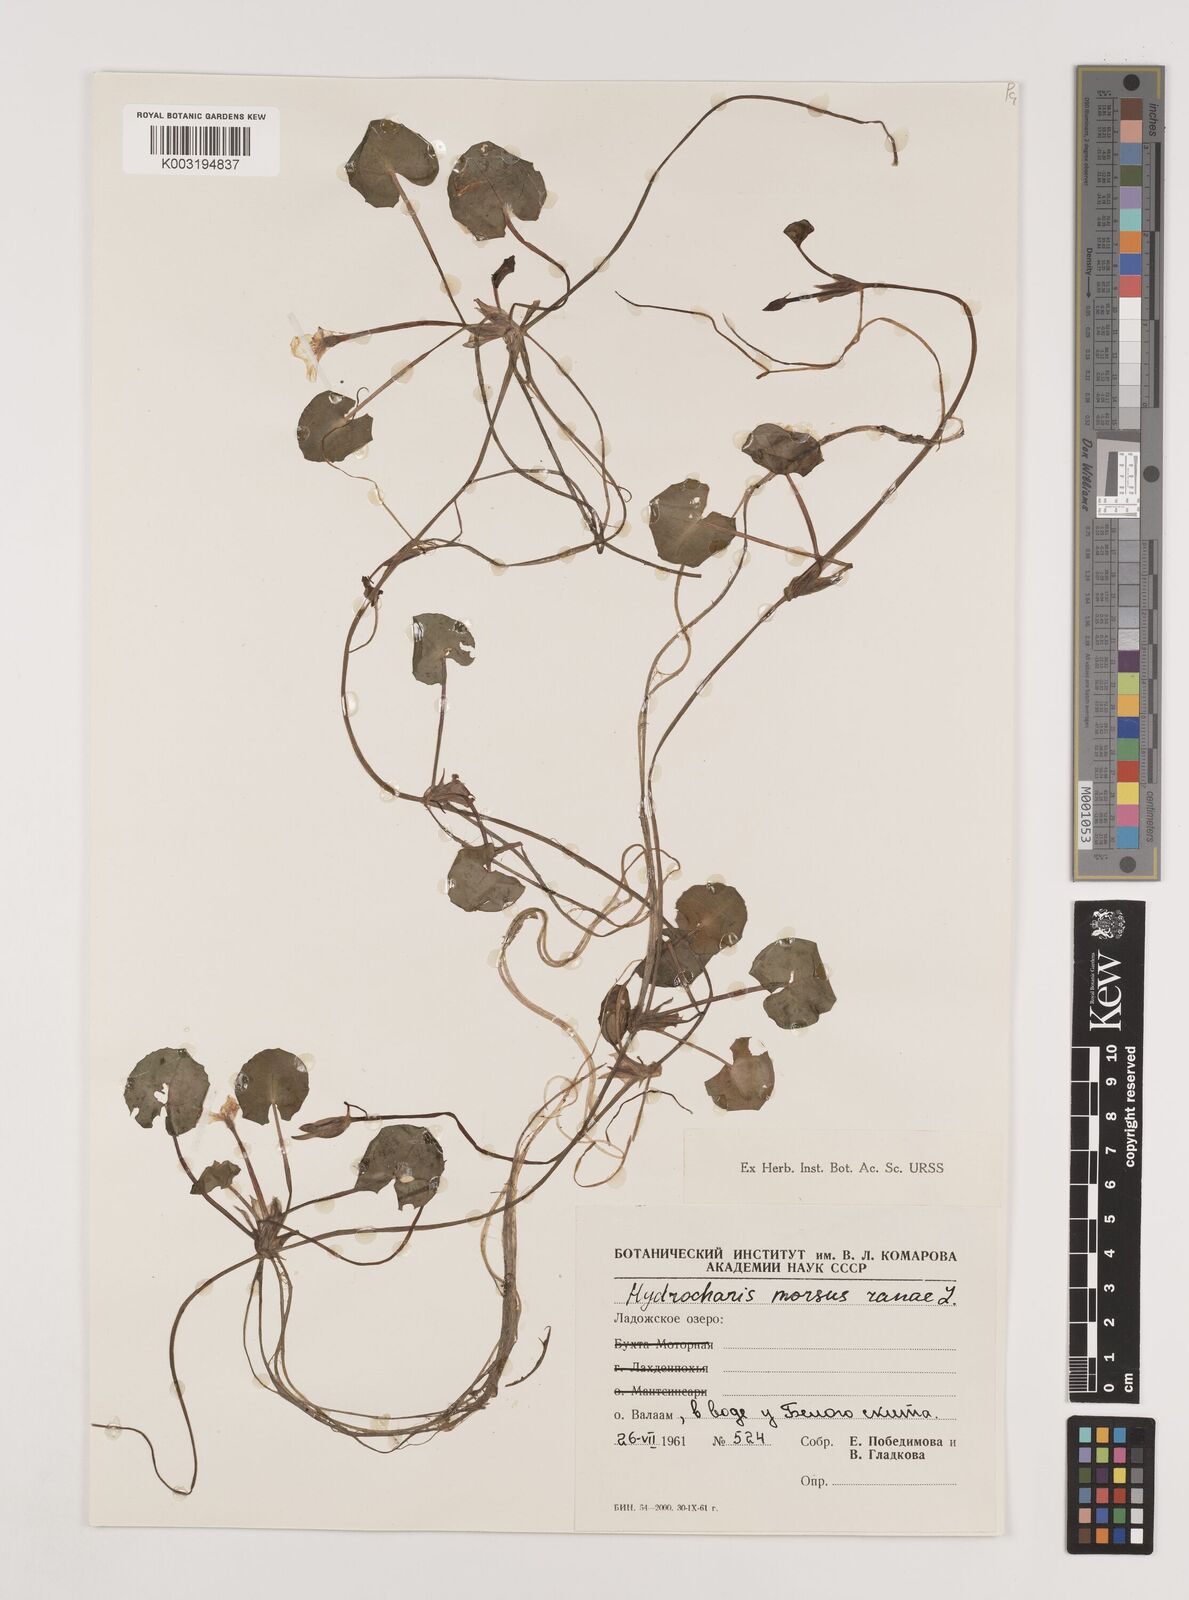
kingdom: Plantae
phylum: Tracheophyta
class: Liliopsida
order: Alismatales
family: Hydrocharitaceae
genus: Hydrocharis
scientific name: Hydrocharis morsus-ranae
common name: Frogbit
